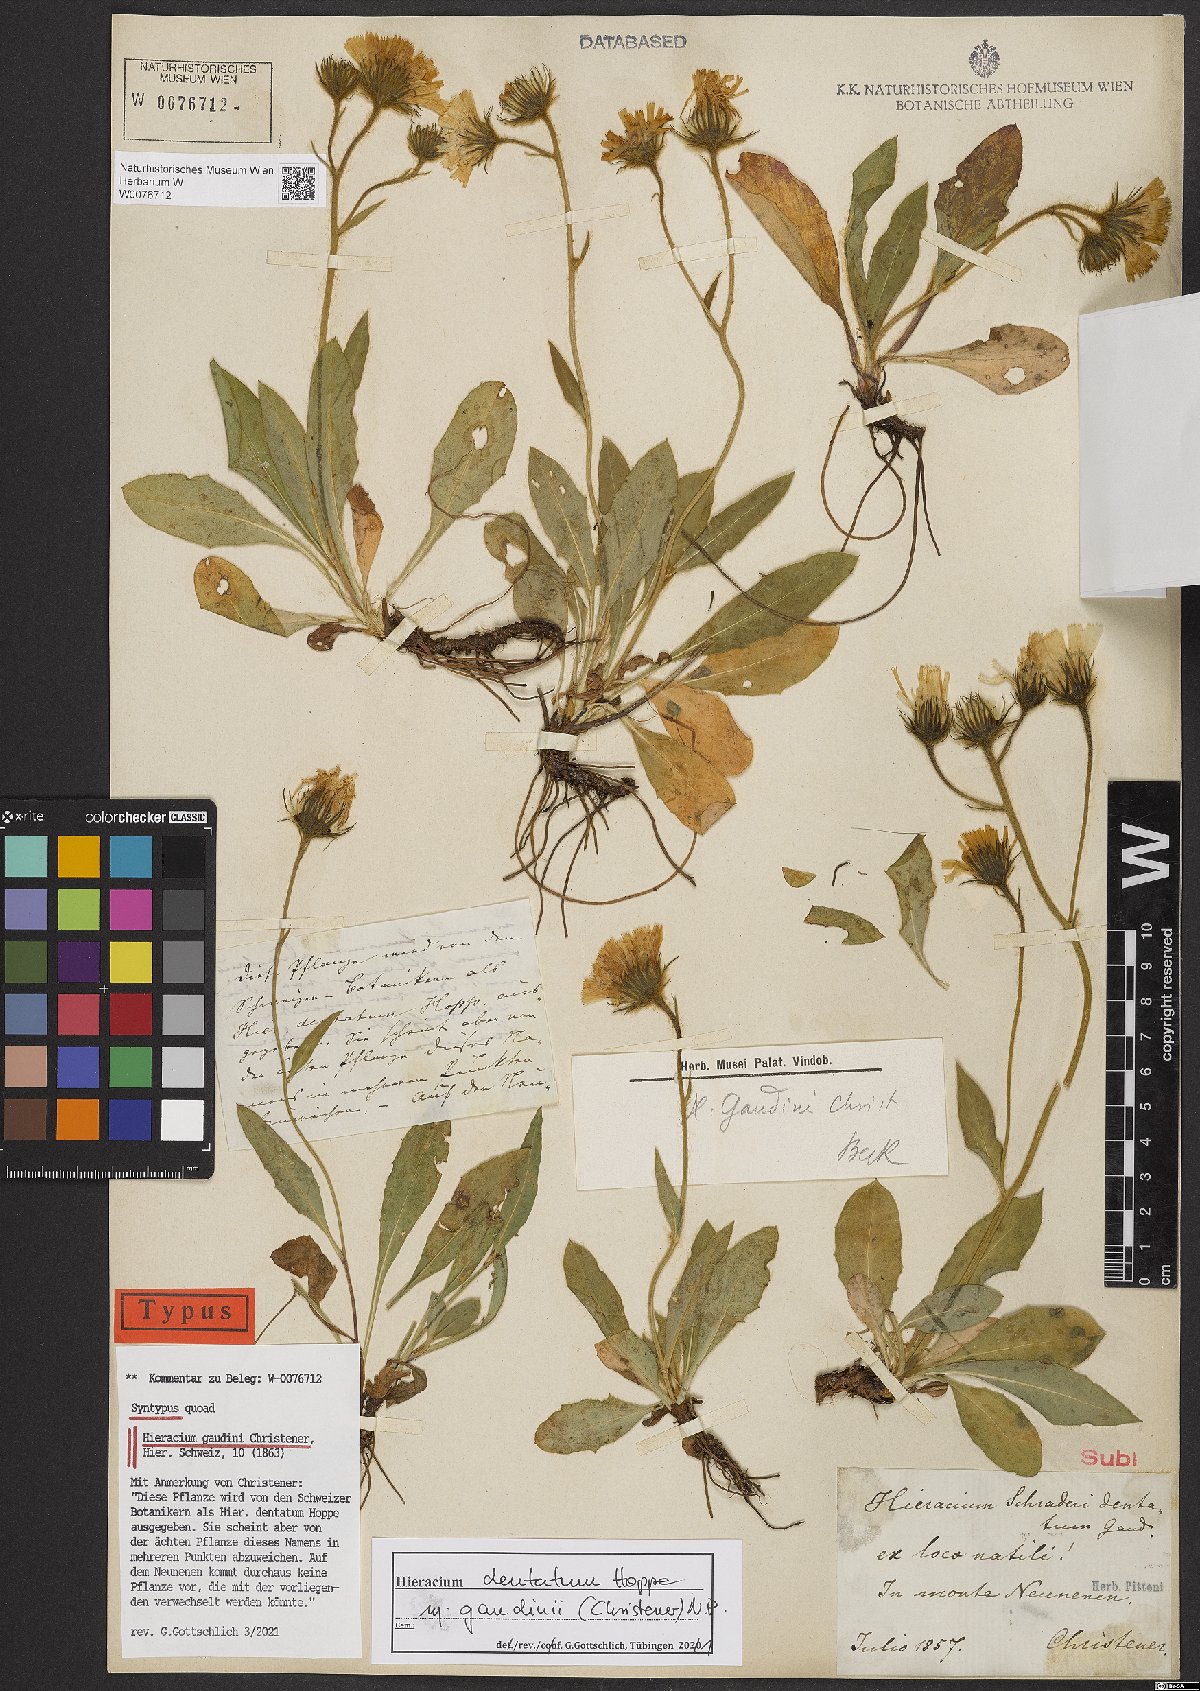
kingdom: Plantae
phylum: Tracheophyta
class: Magnoliopsida
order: Asterales
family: Asteraceae
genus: Hieracium
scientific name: Hieracium dentatum
